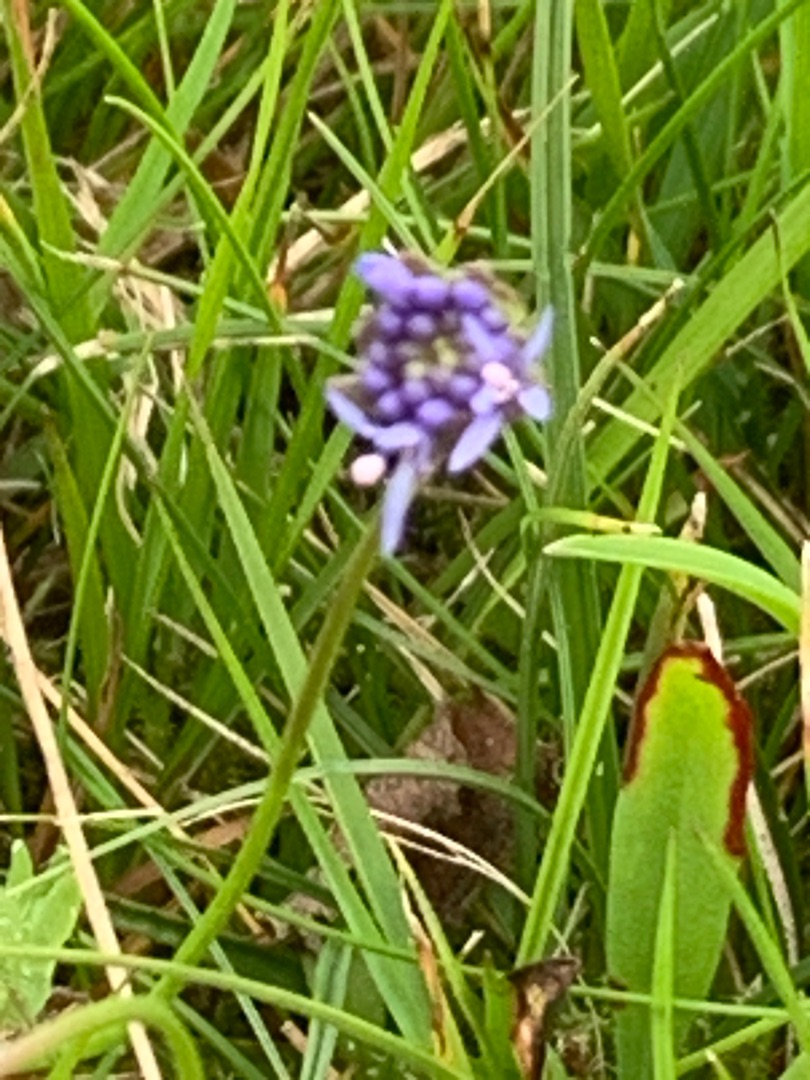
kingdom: Plantae
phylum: Tracheophyta
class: Magnoliopsida
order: Asterales
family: Campanulaceae
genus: Jasione
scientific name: Jasione montana
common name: Blåmunke
